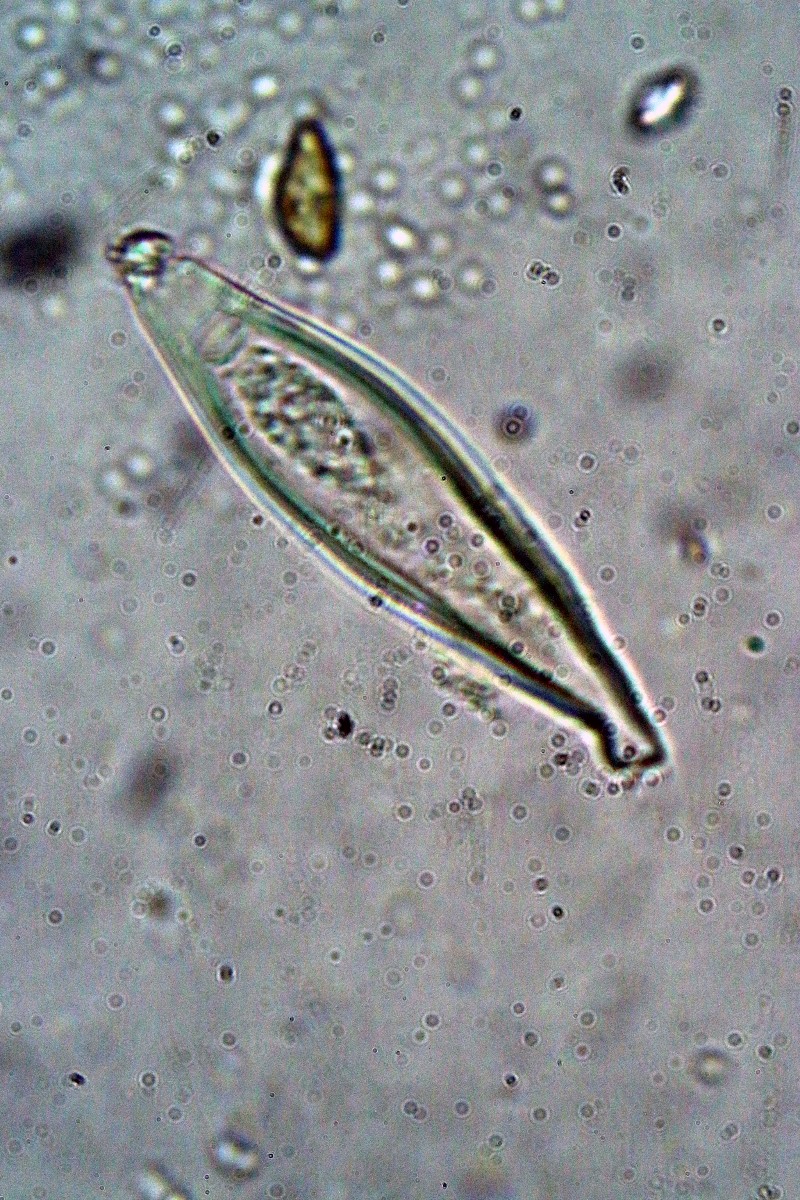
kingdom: Fungi
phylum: Basidiomycota
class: Agaricomycetes
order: Agaricales
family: Inocybaceae
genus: Inocybe
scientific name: Inocybe cincinnata
